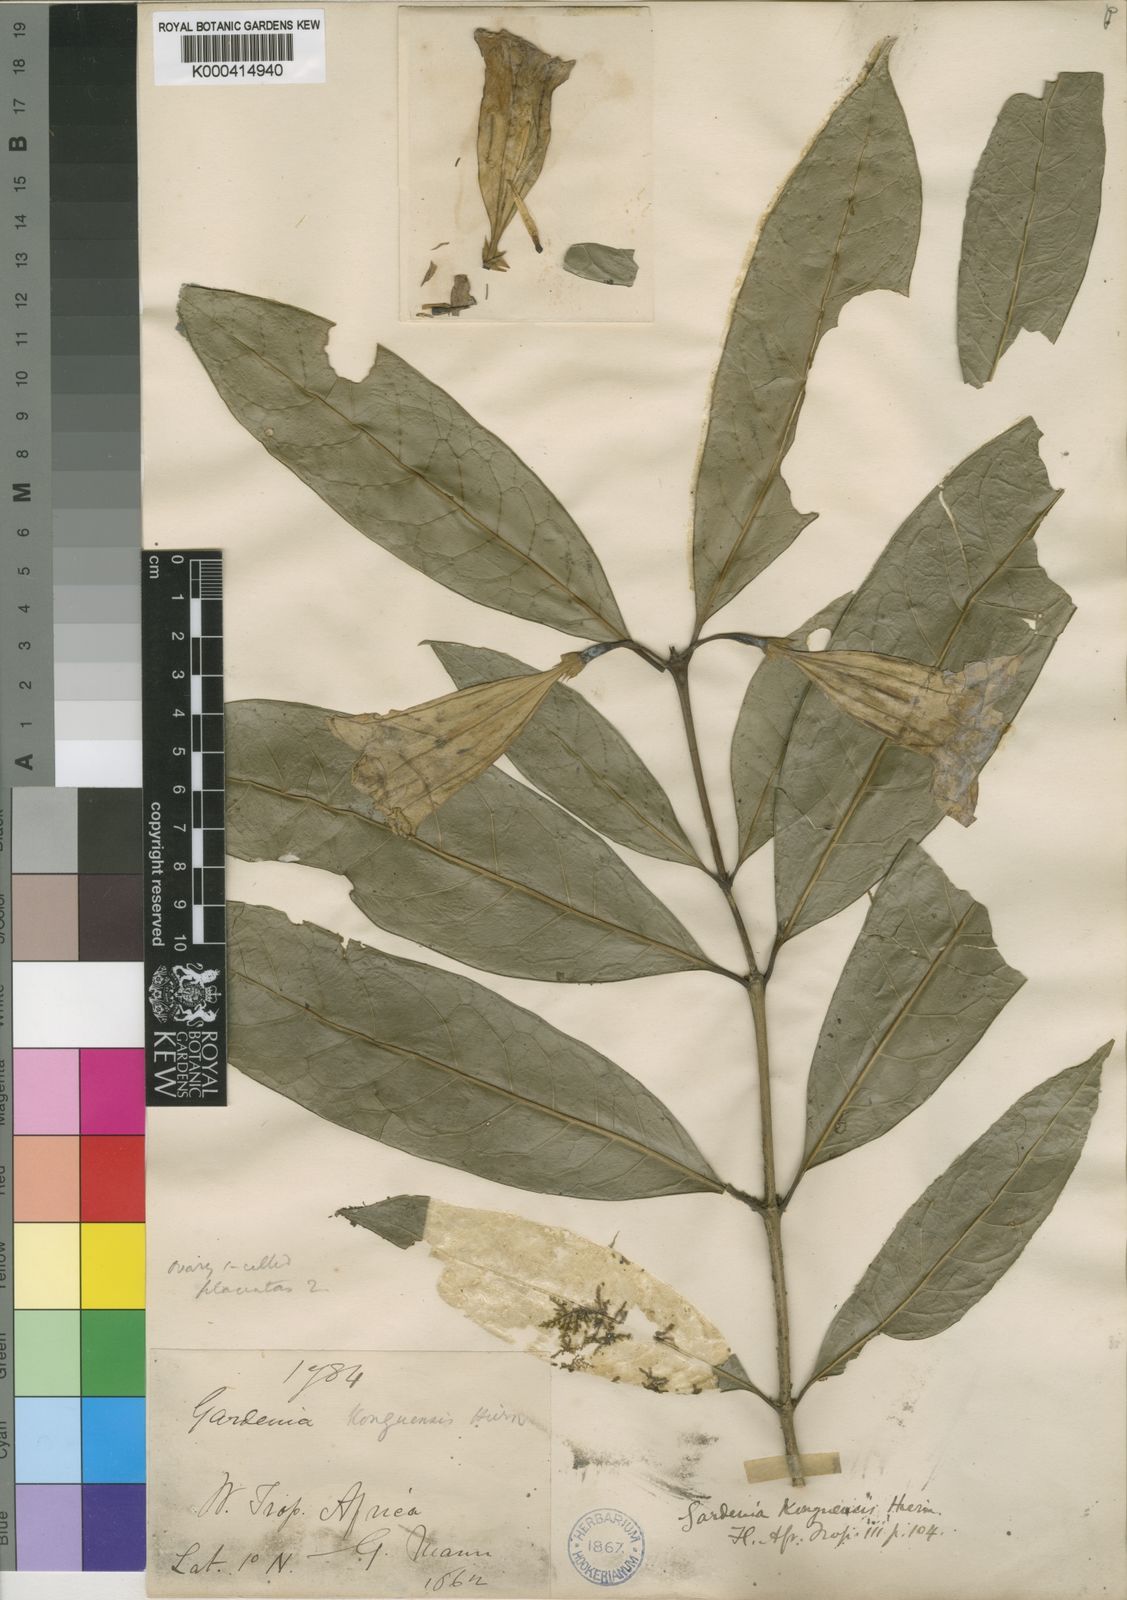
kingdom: Plantae
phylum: Tracheophyta
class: Magnoliopsida
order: Gentianales
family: Rubiaceae
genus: Didymosalpinx
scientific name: Didymosalpinx konguensis
